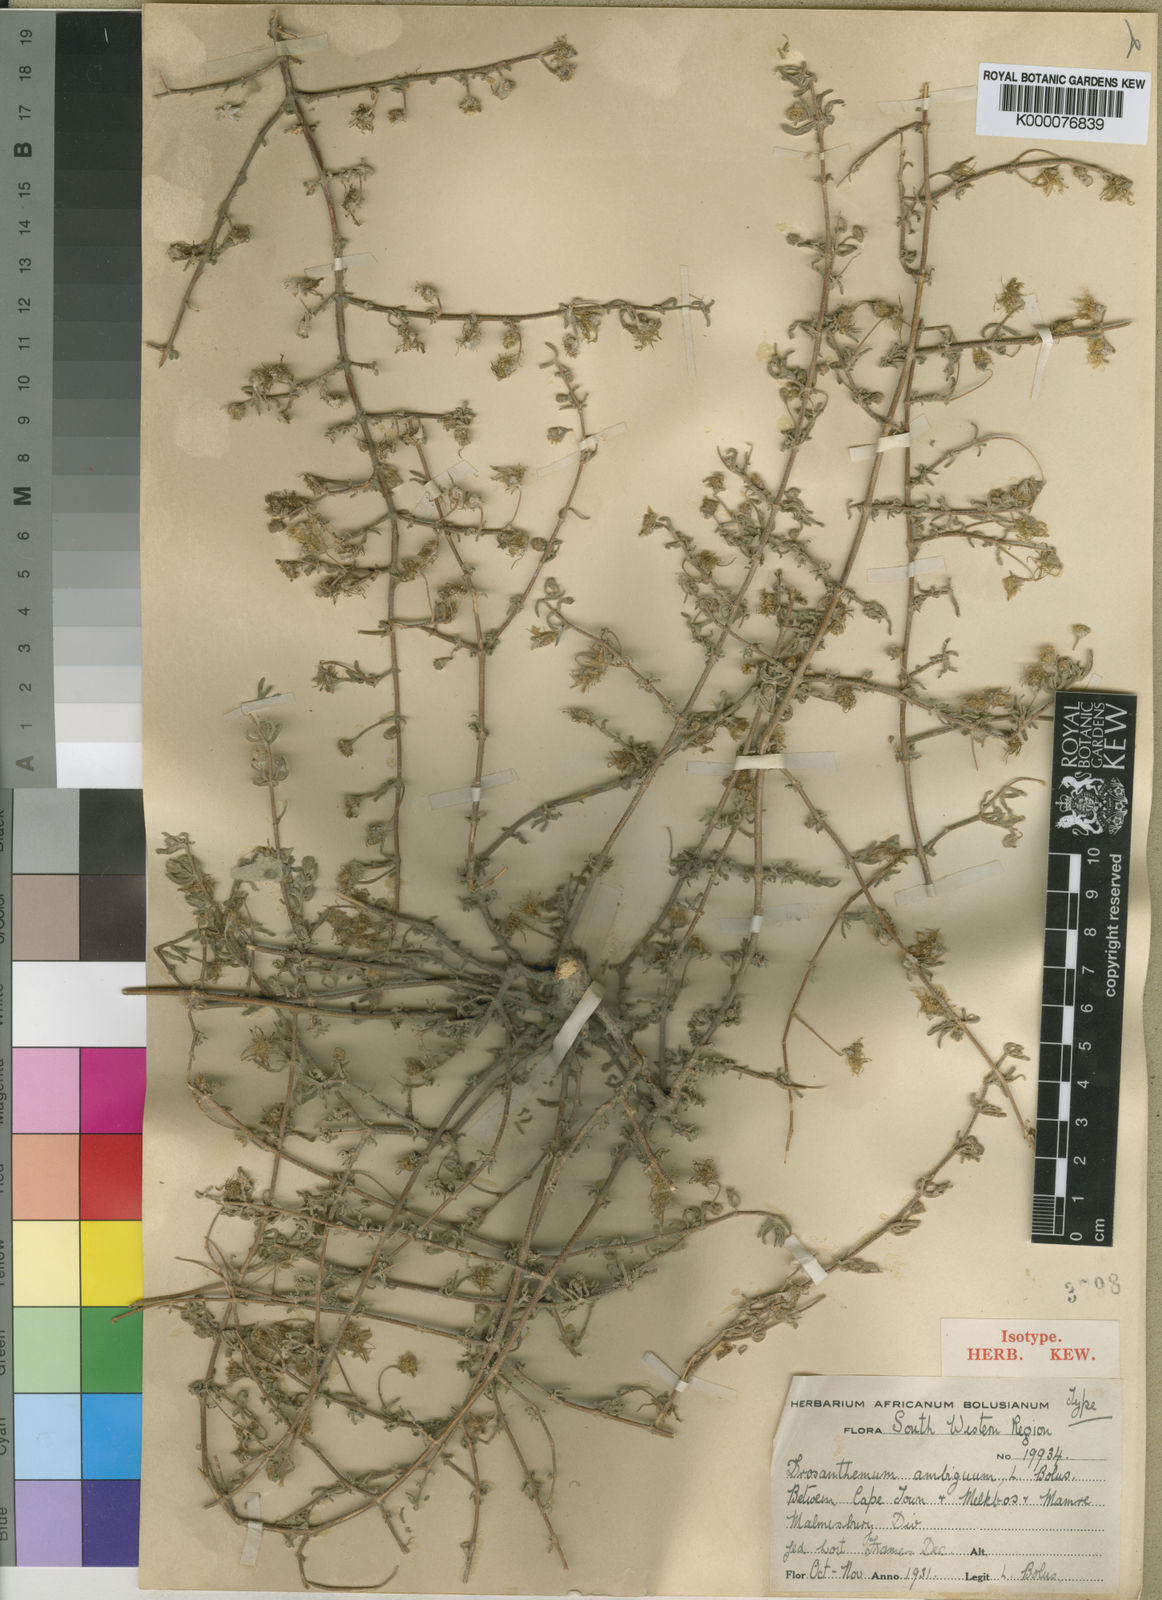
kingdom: Plantae
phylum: Tracheophyta
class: Magnoliopsida
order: Caryophyllales
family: Aizoaceae
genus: Drosanthemum
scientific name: Drosanthemum ambiguum
